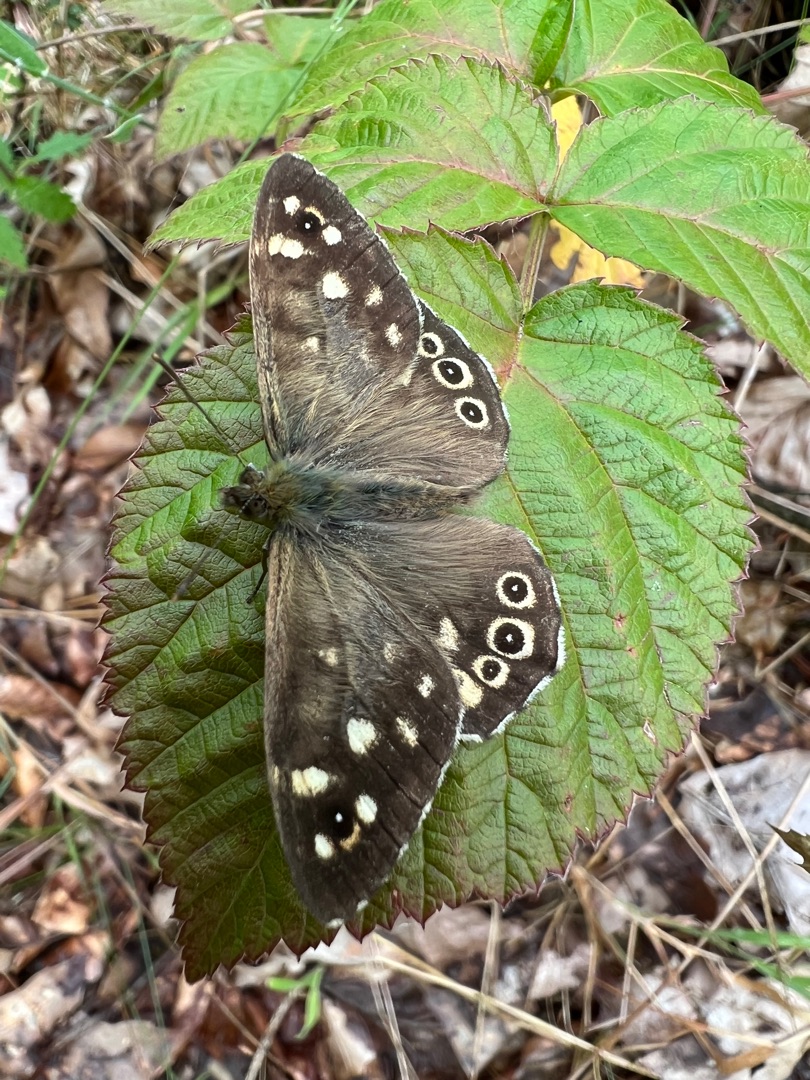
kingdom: Animalia
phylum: Arthropoda
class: Insecta
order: Lepidoptera
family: Nymphalidae
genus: Pararge
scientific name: Pararge aegeria
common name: Skovrandøje
